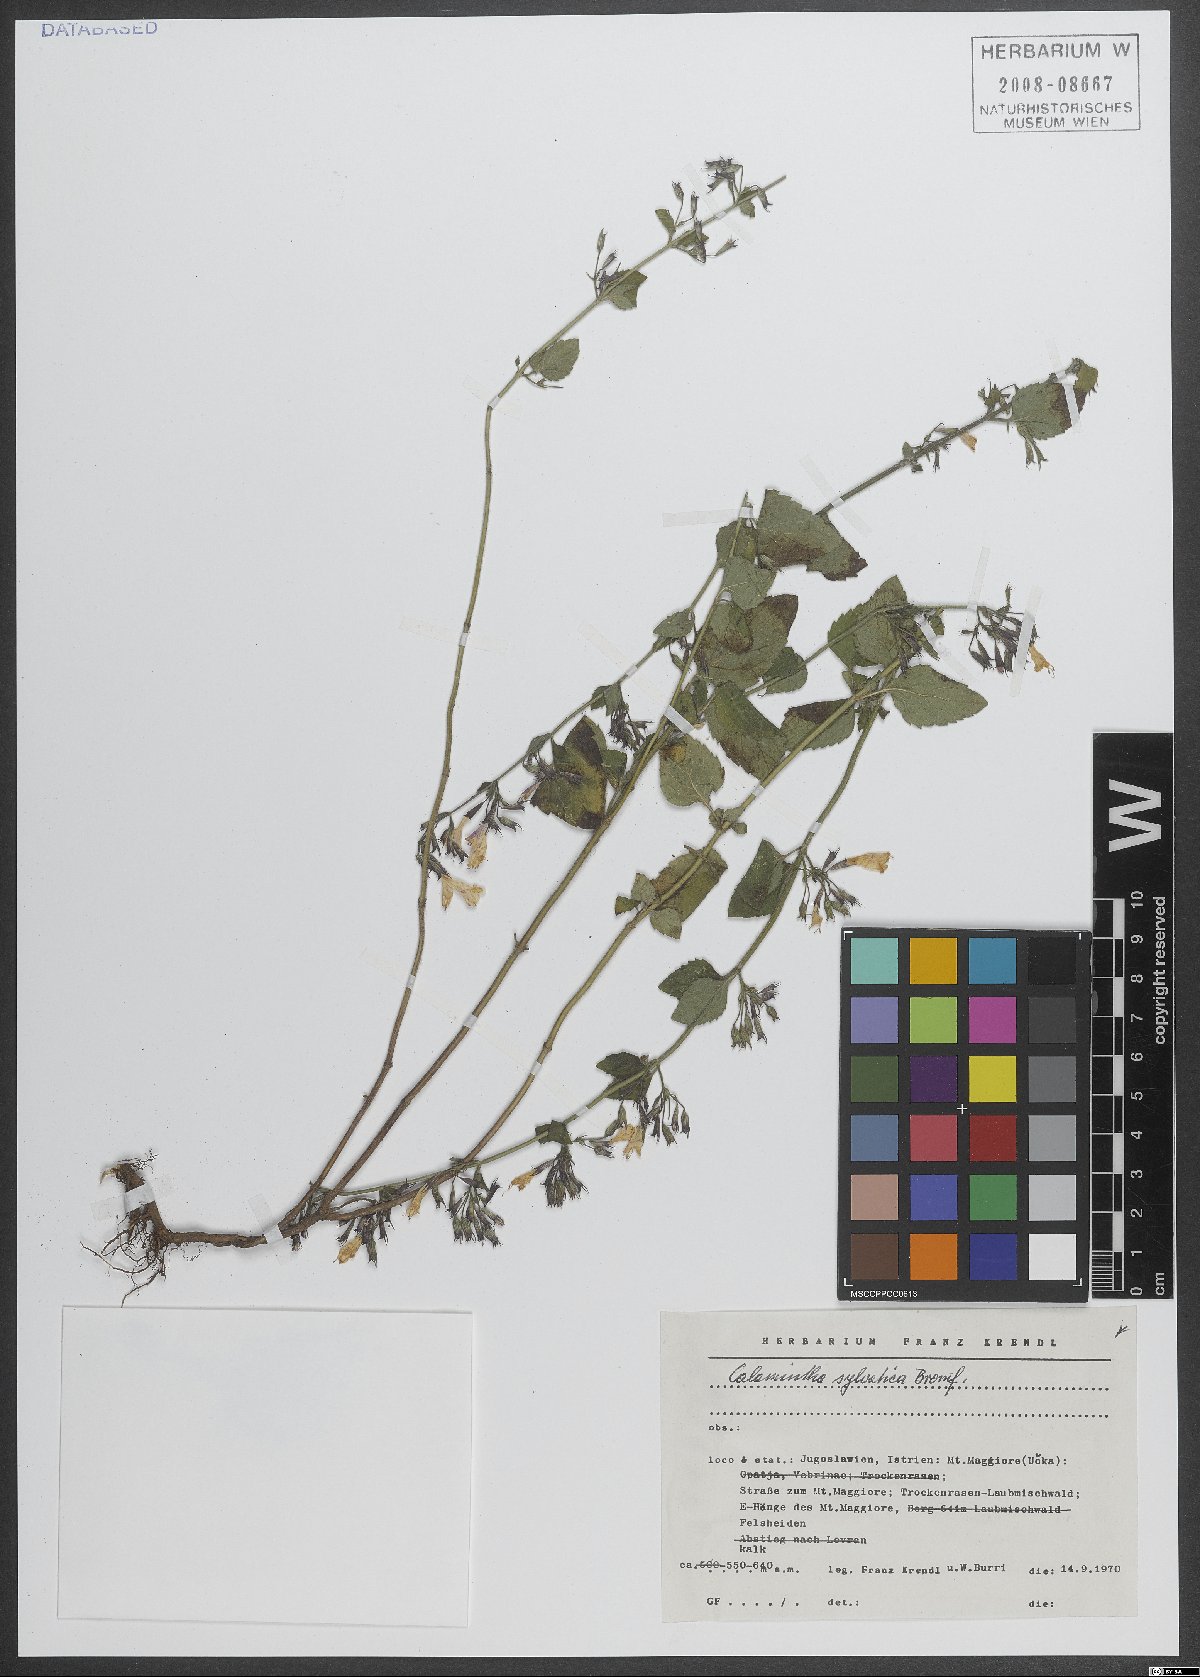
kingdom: Plantae
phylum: Tracheophyta
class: Magnoliopsida
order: Lamiales
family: Lamiaceae
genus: Clinopodium
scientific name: Clinopodium menthifolium
